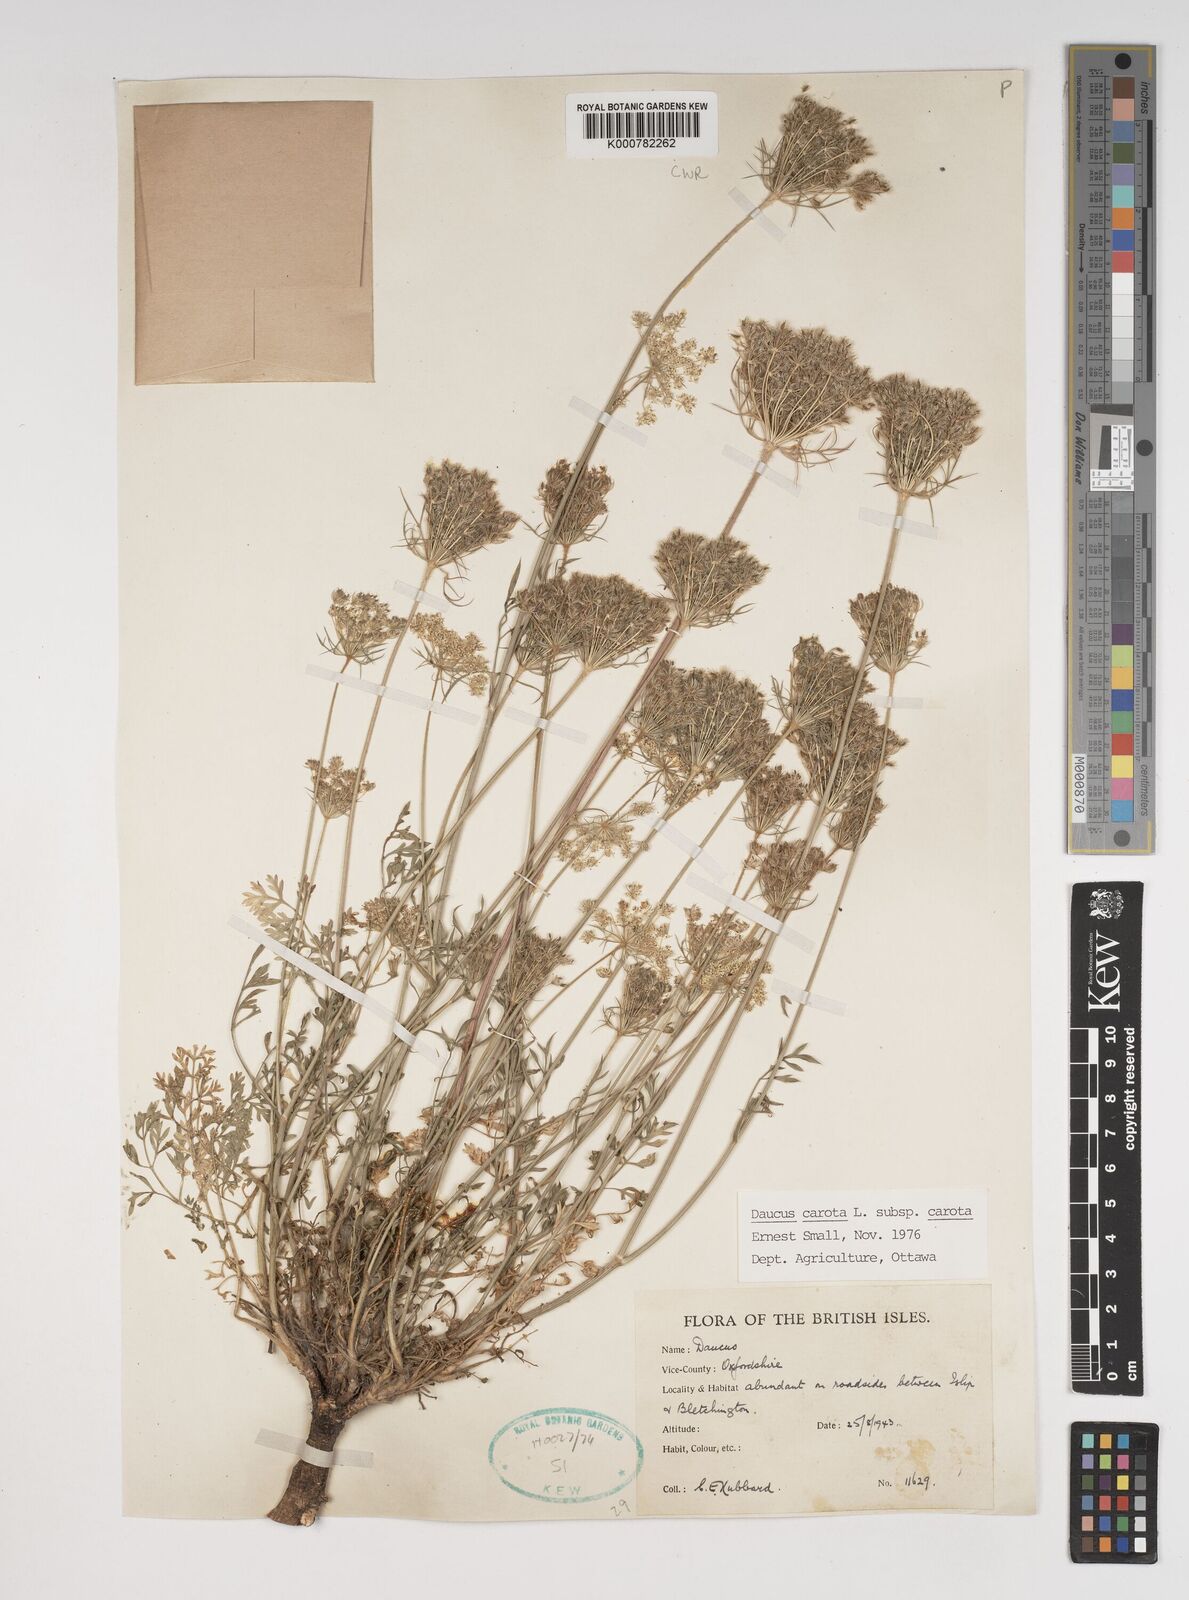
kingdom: Plantae
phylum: Tracheophyta
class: Magnoliopsida
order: Apiales
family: Apiaceae
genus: Daucus
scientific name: Daucus carota
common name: Wild carrot
